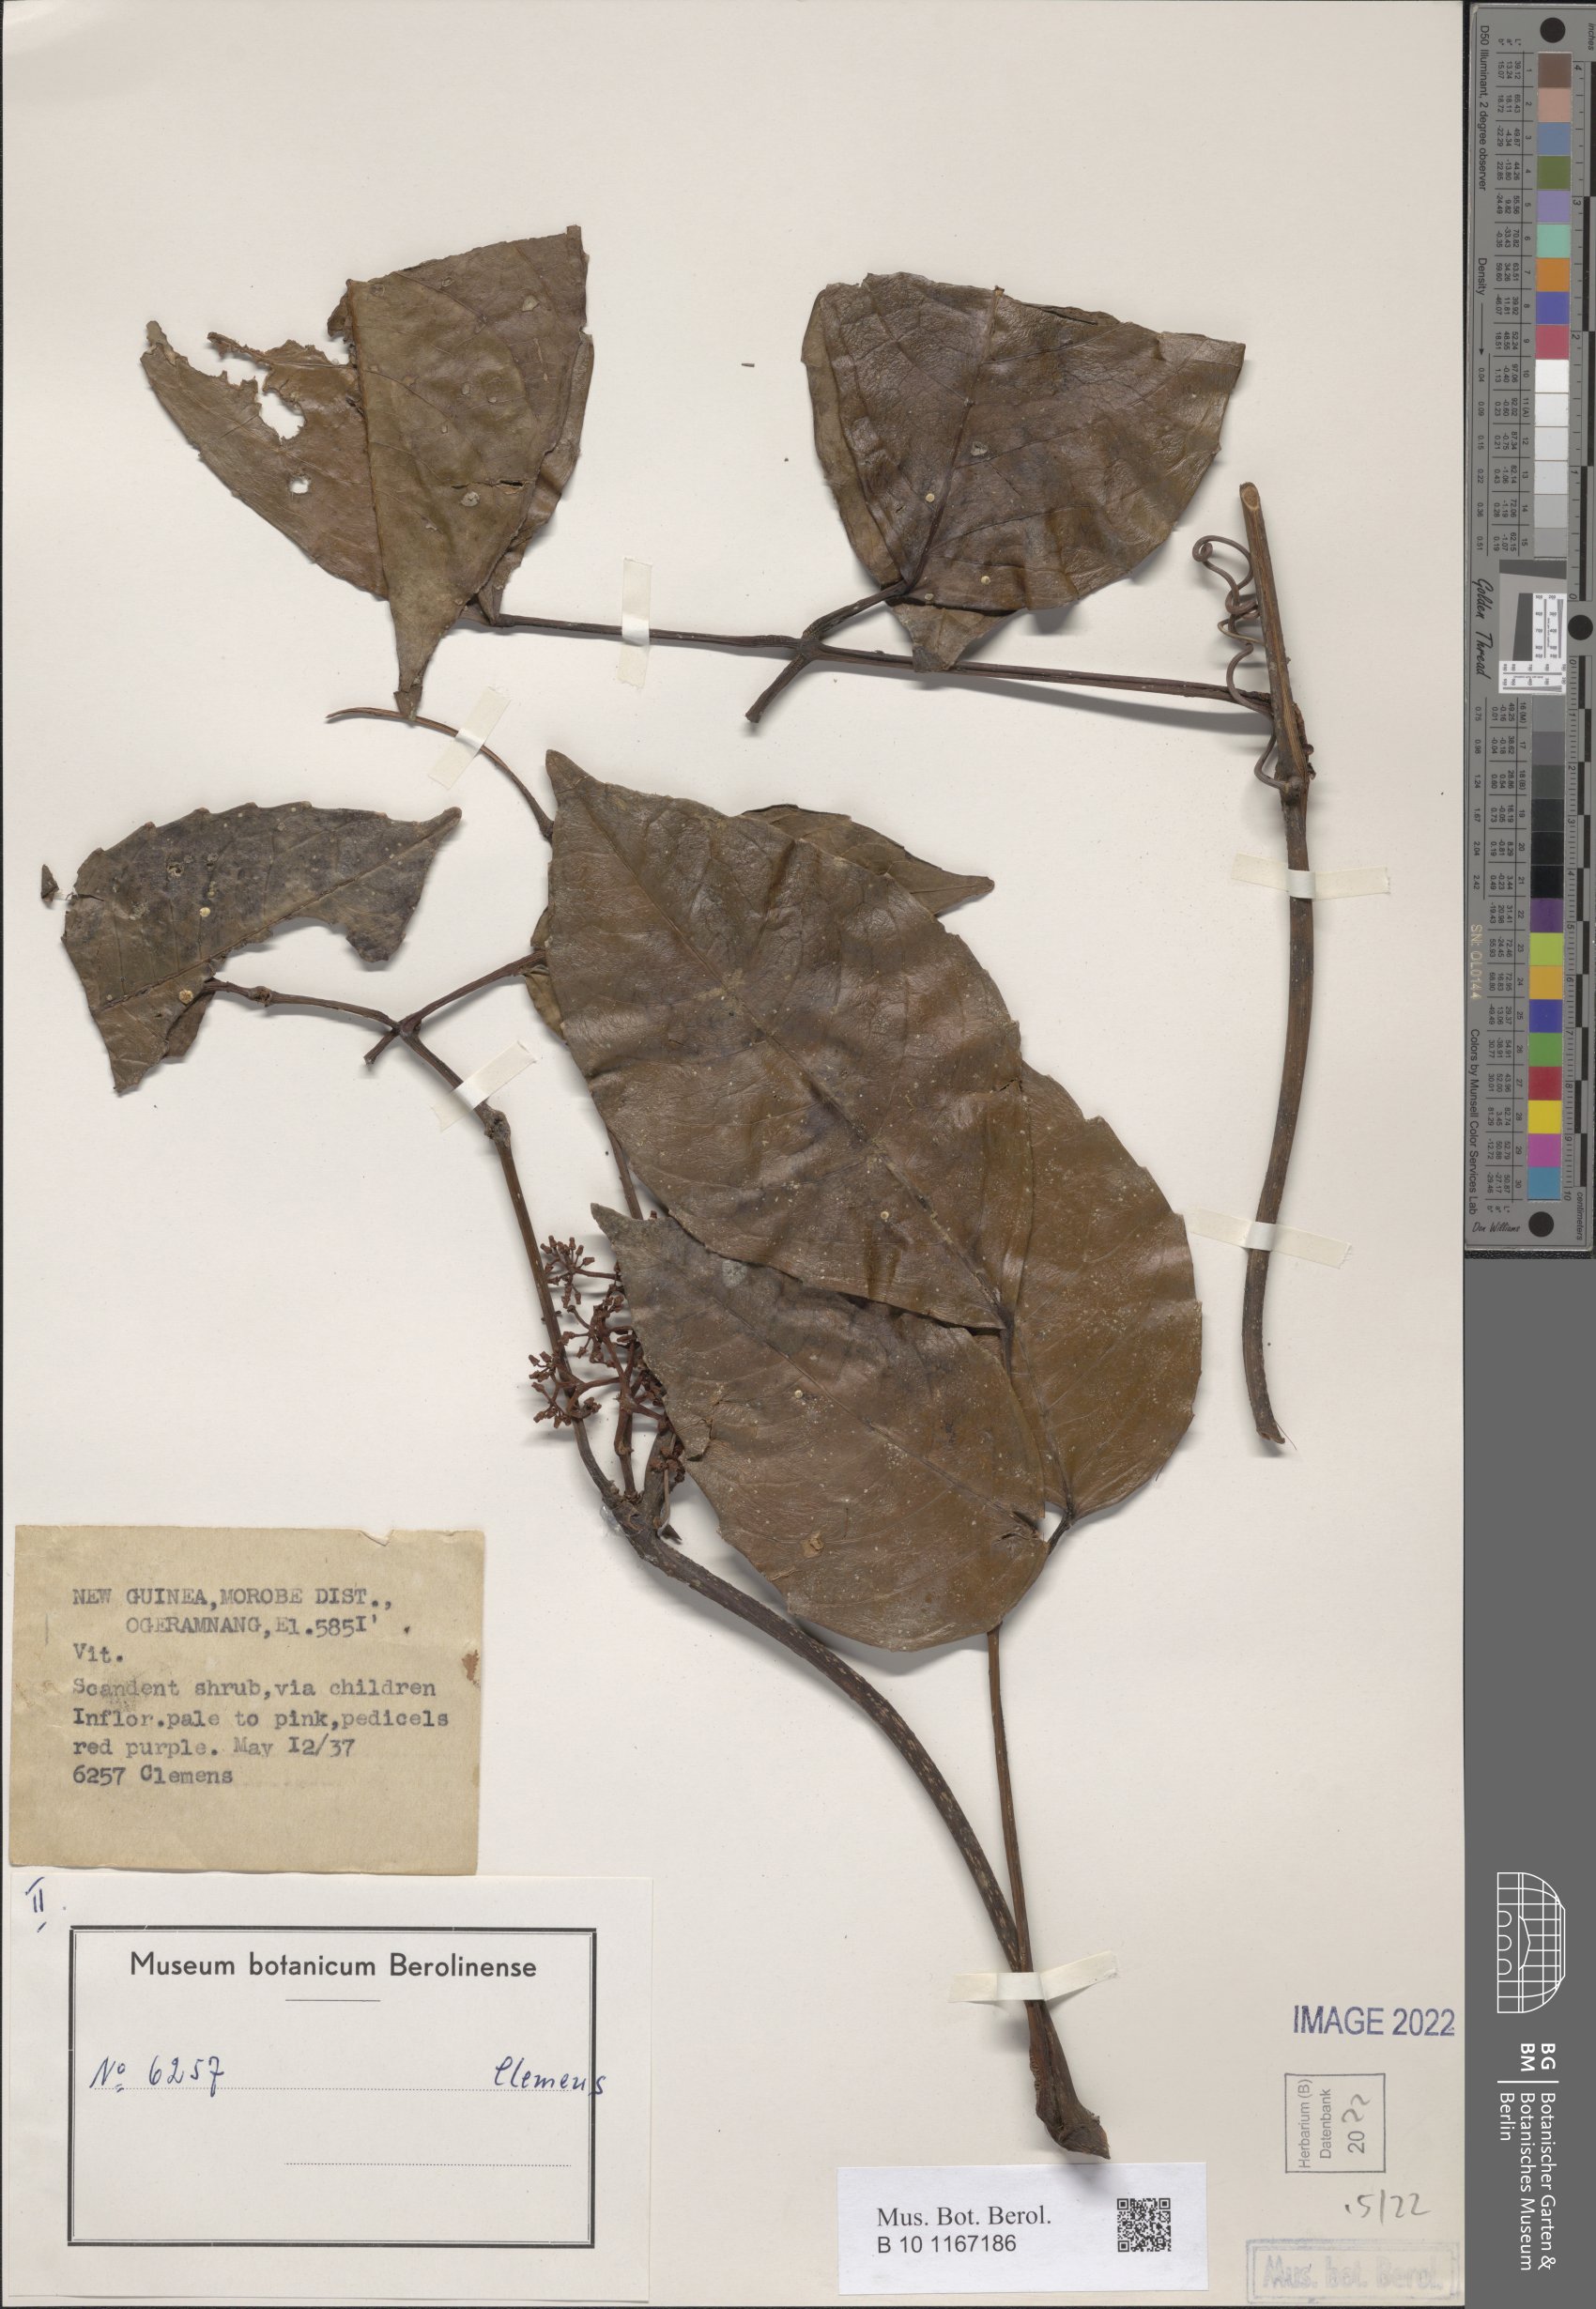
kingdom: Plantae
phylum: Tracheophyta
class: Magnoliopsida
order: Vitales
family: Vitaceae
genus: Tetrastigma
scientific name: Tetrastigma laevigatum
